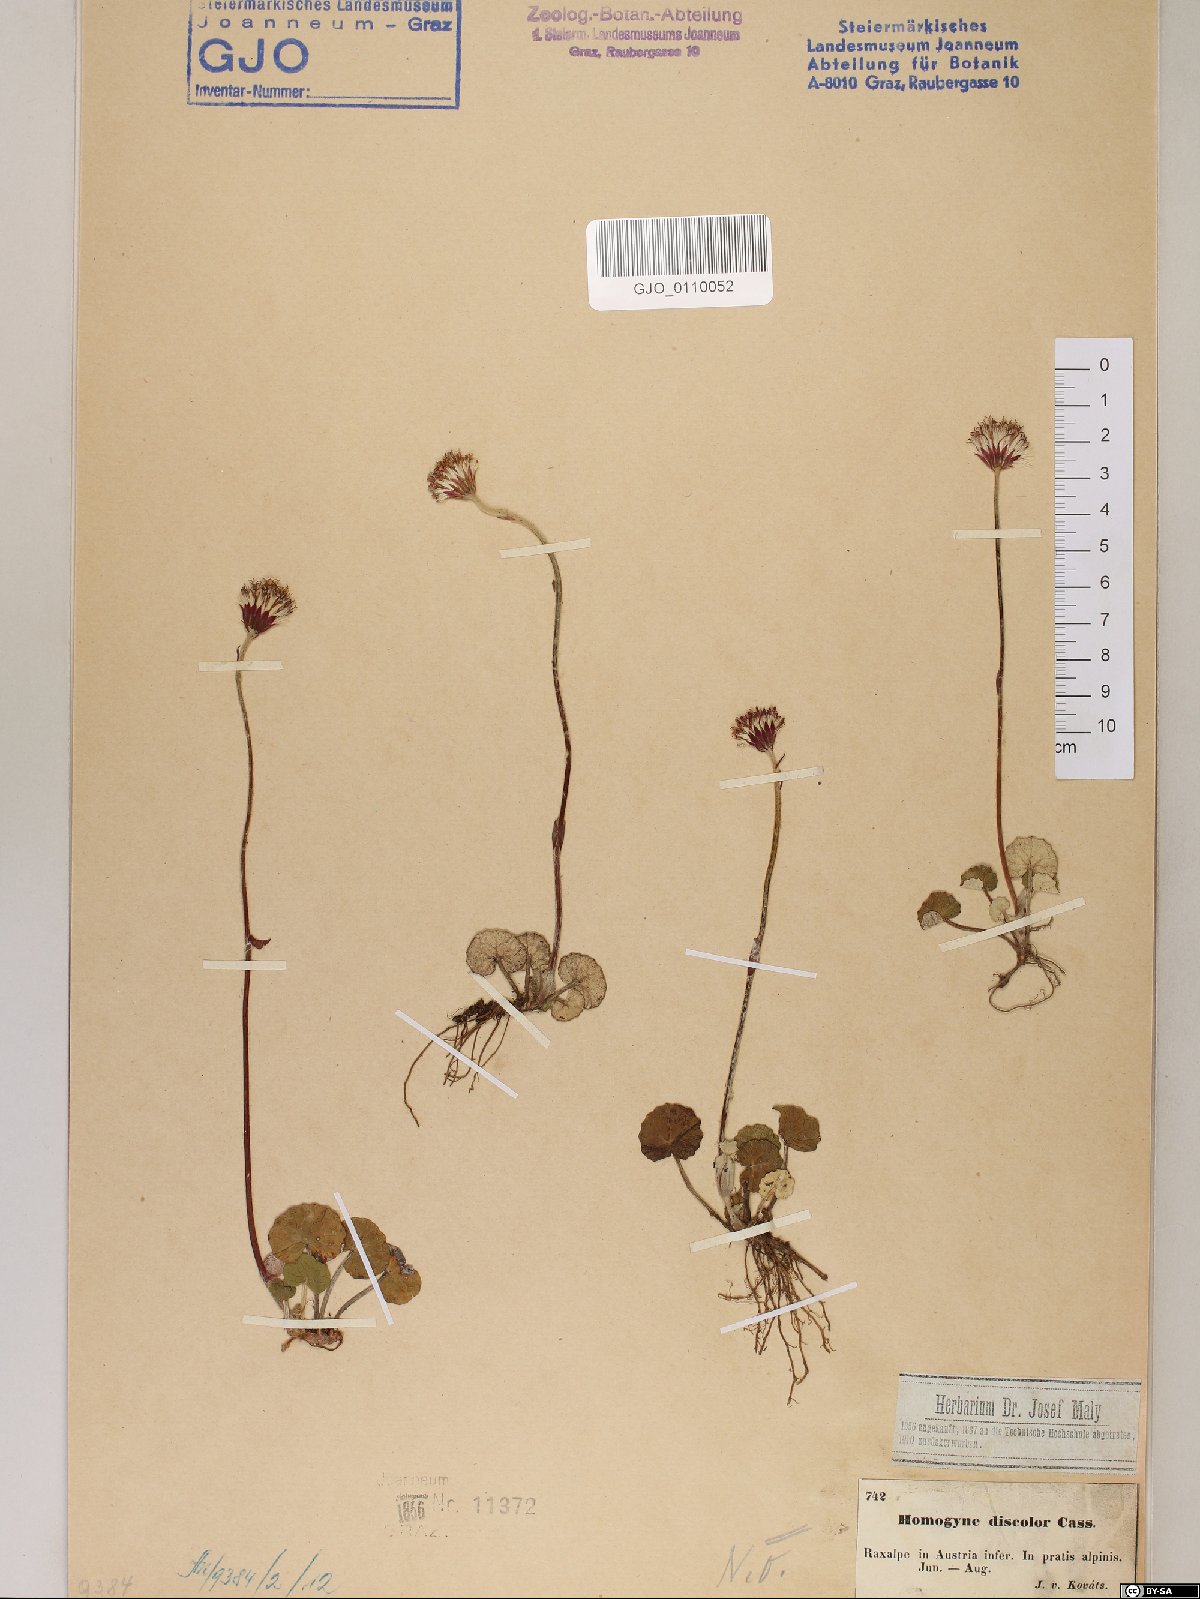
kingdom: Plantae
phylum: Tracheophyta
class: Magnoliopsida
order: Asterales
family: Asteraceae
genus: Homogyne
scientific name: Homogyne discolor
